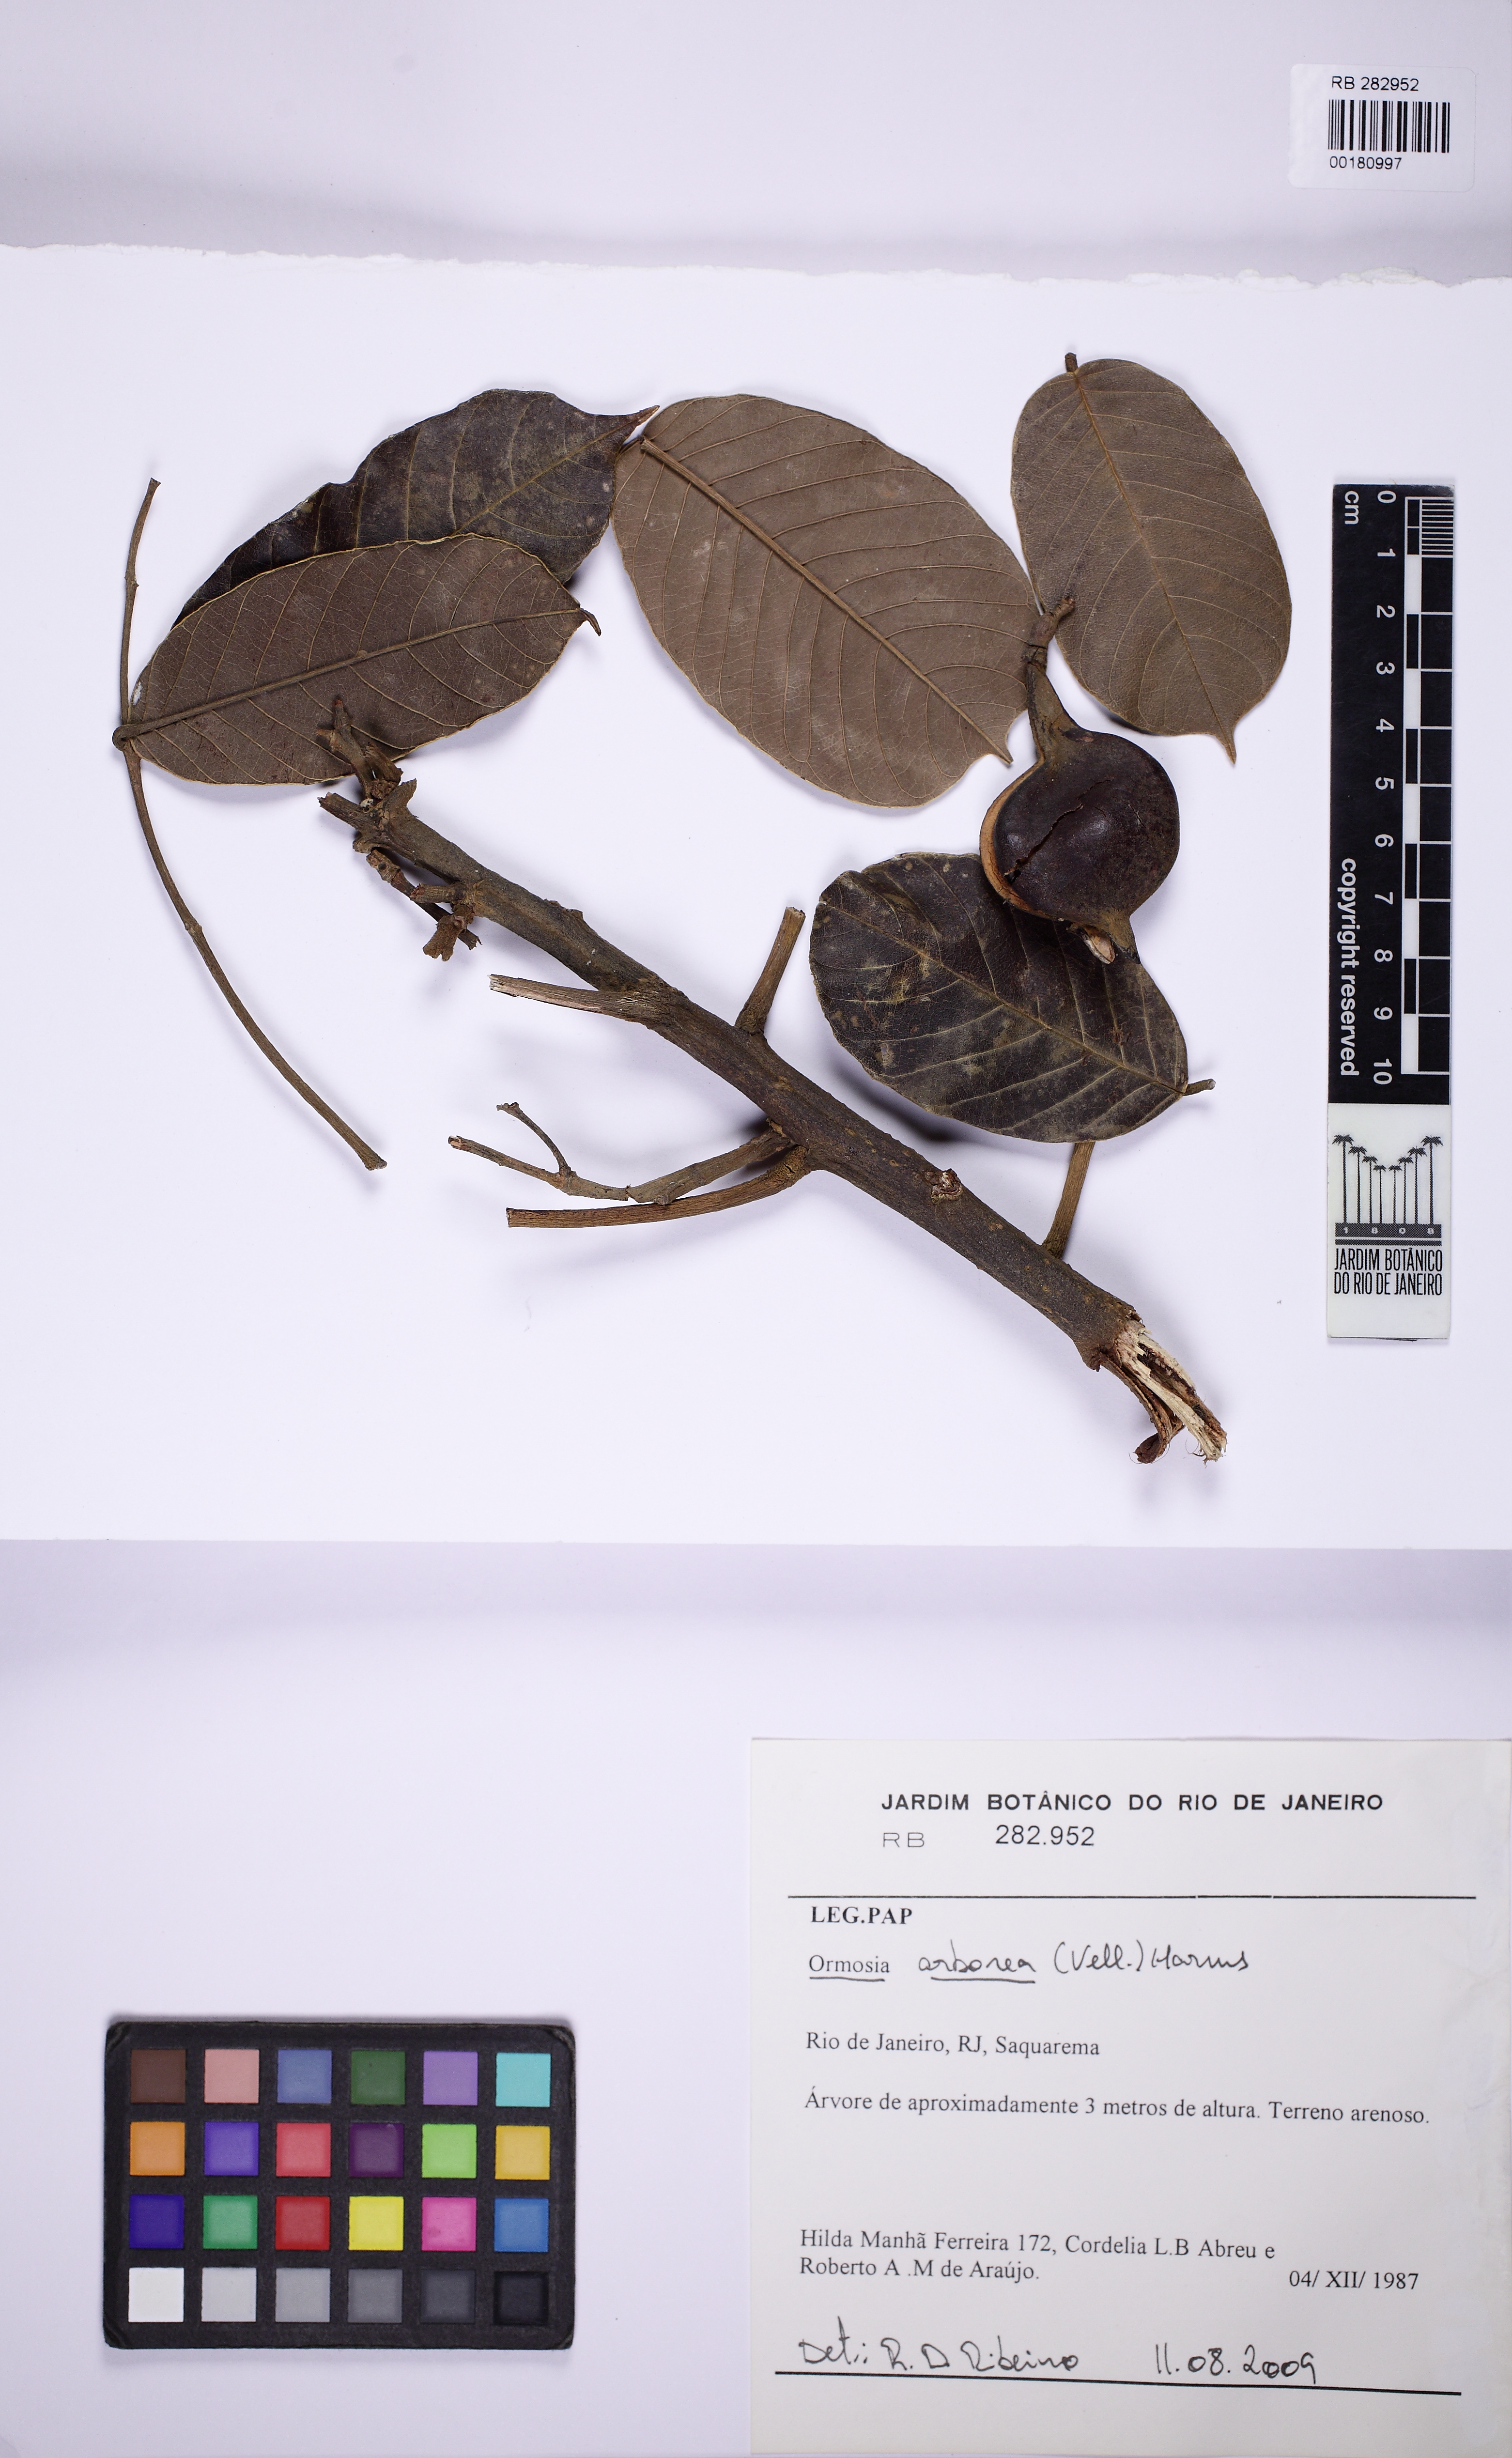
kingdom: Plantae
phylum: Tracheophyta
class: Magnoliopsida
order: Fabales
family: Fabaceae
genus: Ormosia
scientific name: Ormosia
